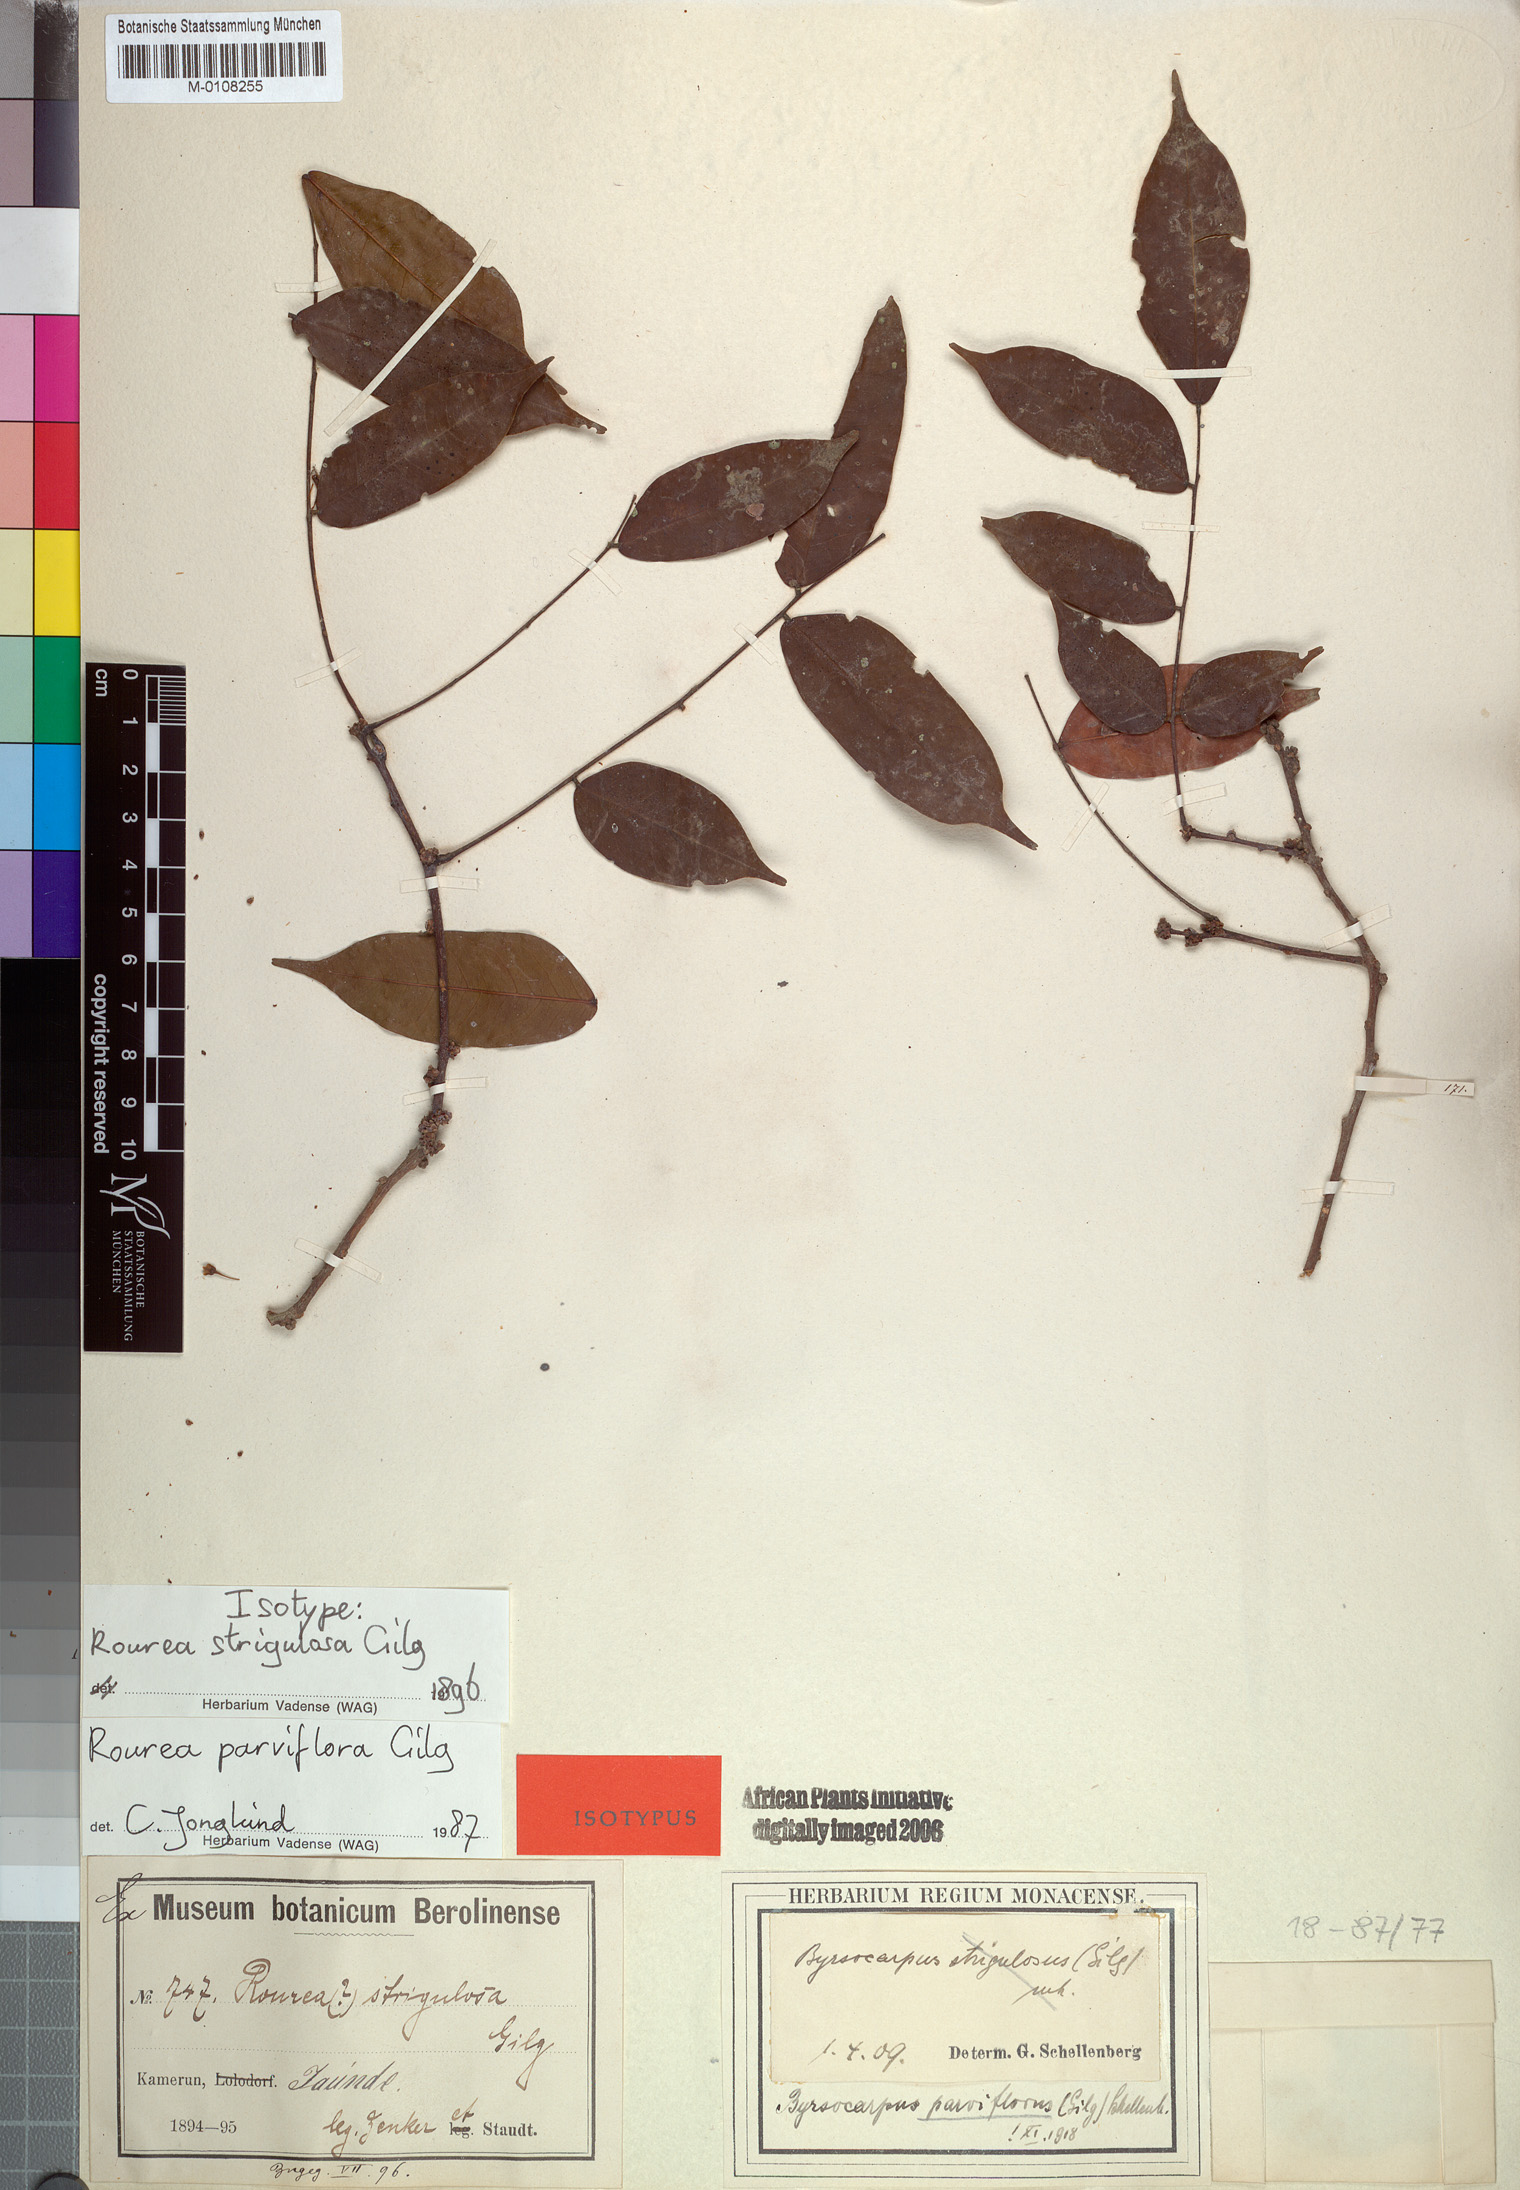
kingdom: Plantae
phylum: Tracheophyta
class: Magnoliopsida
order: Oxalidales
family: Connaraceae
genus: Rourea
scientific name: Rourea parviflora
